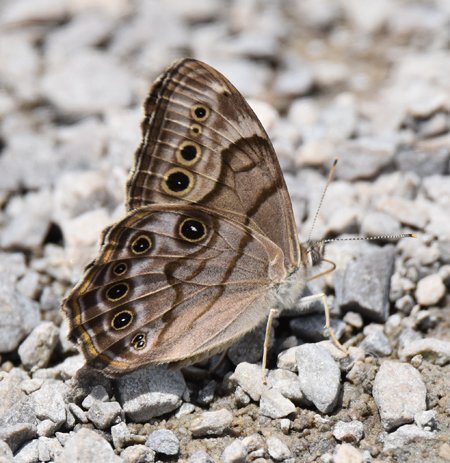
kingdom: Animalia
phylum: Arthropoda
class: Insecta
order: Lepidoptera
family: Nymphalidae
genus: Lethe
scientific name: Lethe anthedon
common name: Northern Pearly-Eye
